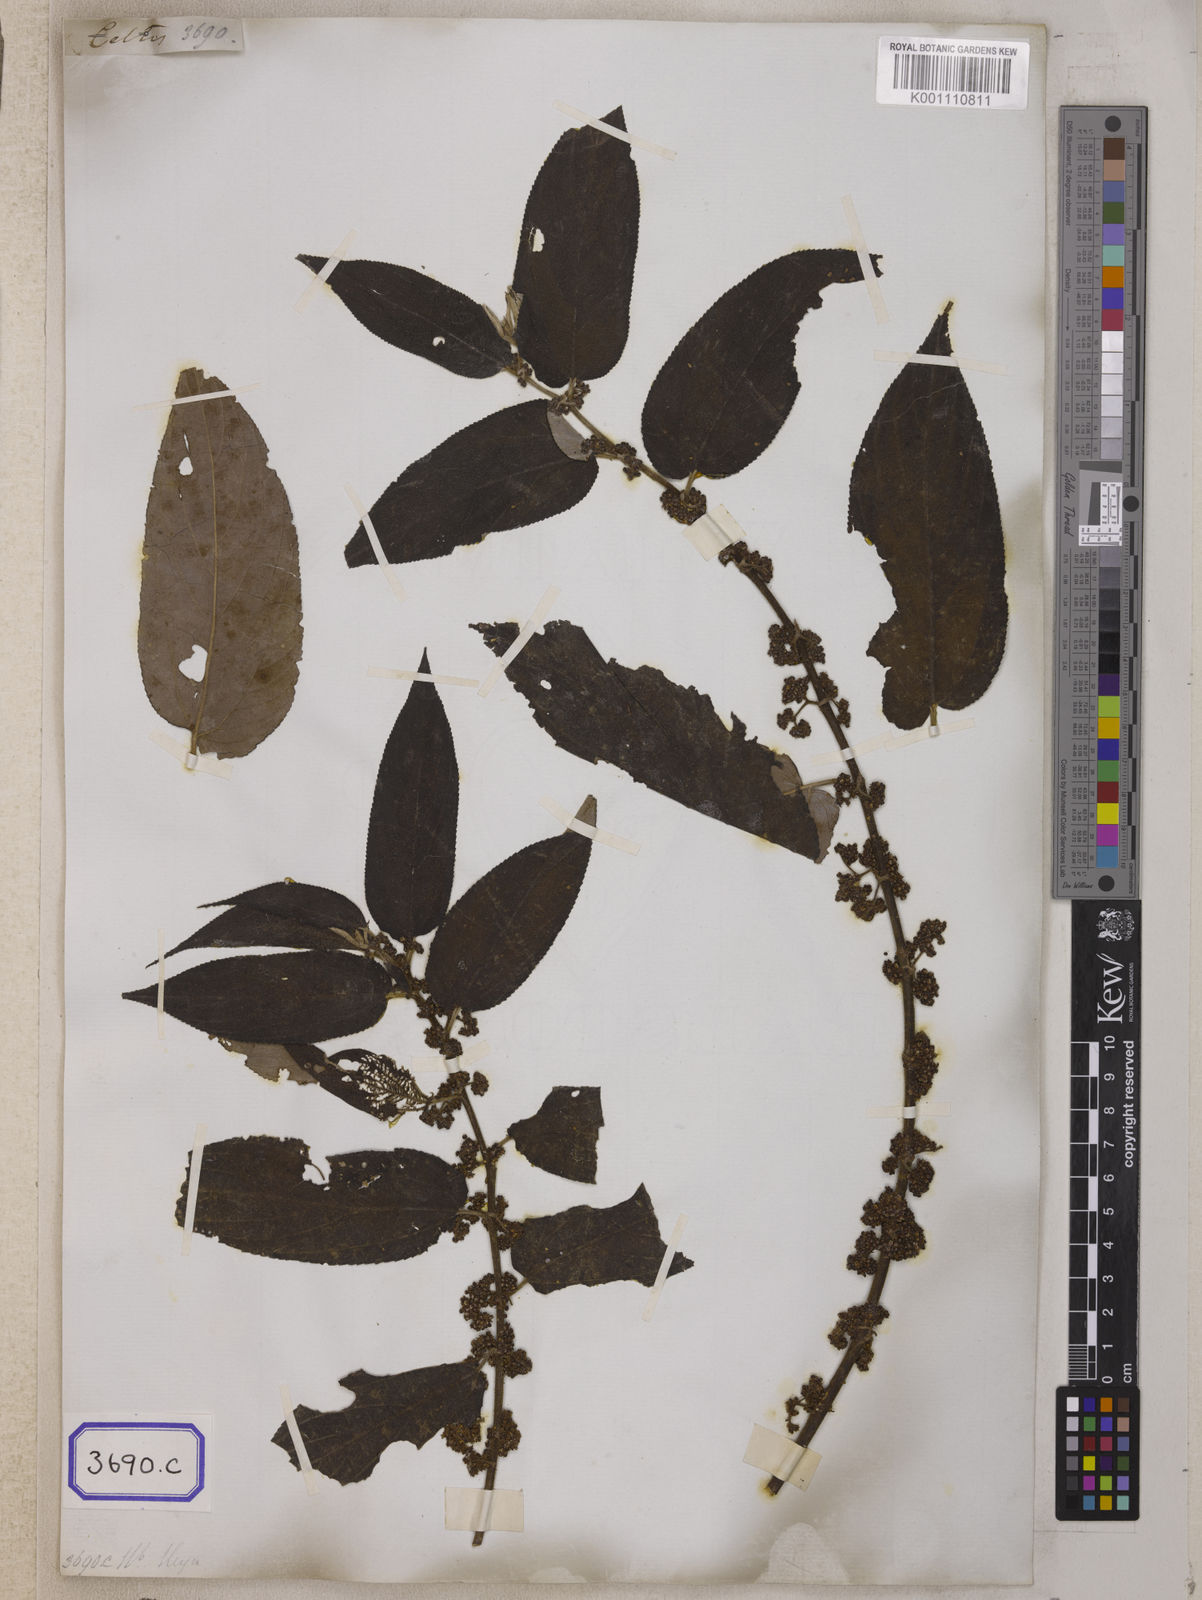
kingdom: Plantae
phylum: Tracheophyta
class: Magnoliopsida
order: Rosales
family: Cannabaceae
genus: Trema
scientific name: Trema tomentosum
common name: Peach-leaf-poisonbush
